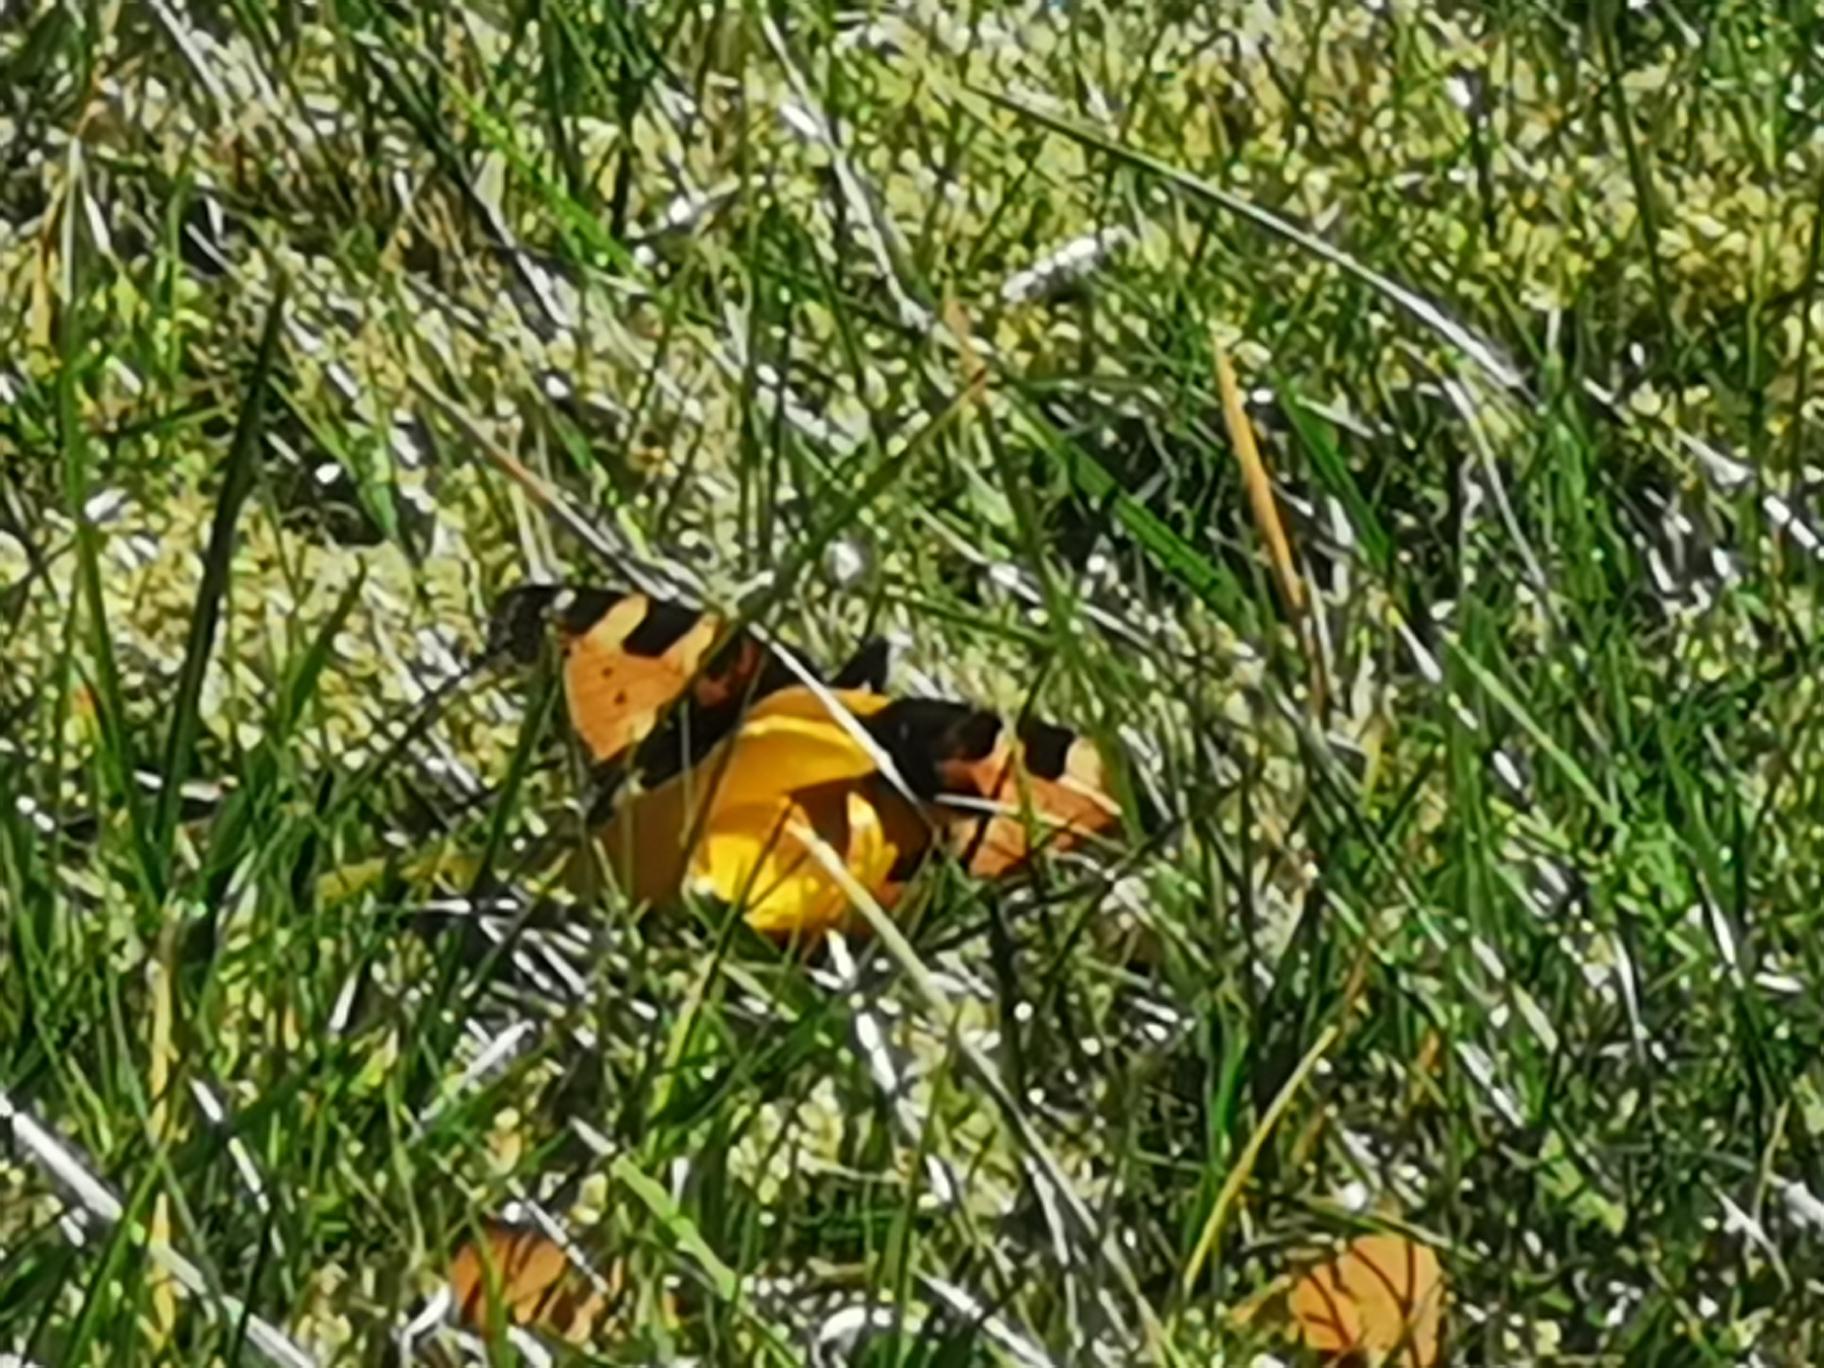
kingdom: Animalia
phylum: Arthropoda
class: Insecta
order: Lepidoptera
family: Nymphalidae
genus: Aglais
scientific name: Aglais urticae
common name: Nældens takvinge
